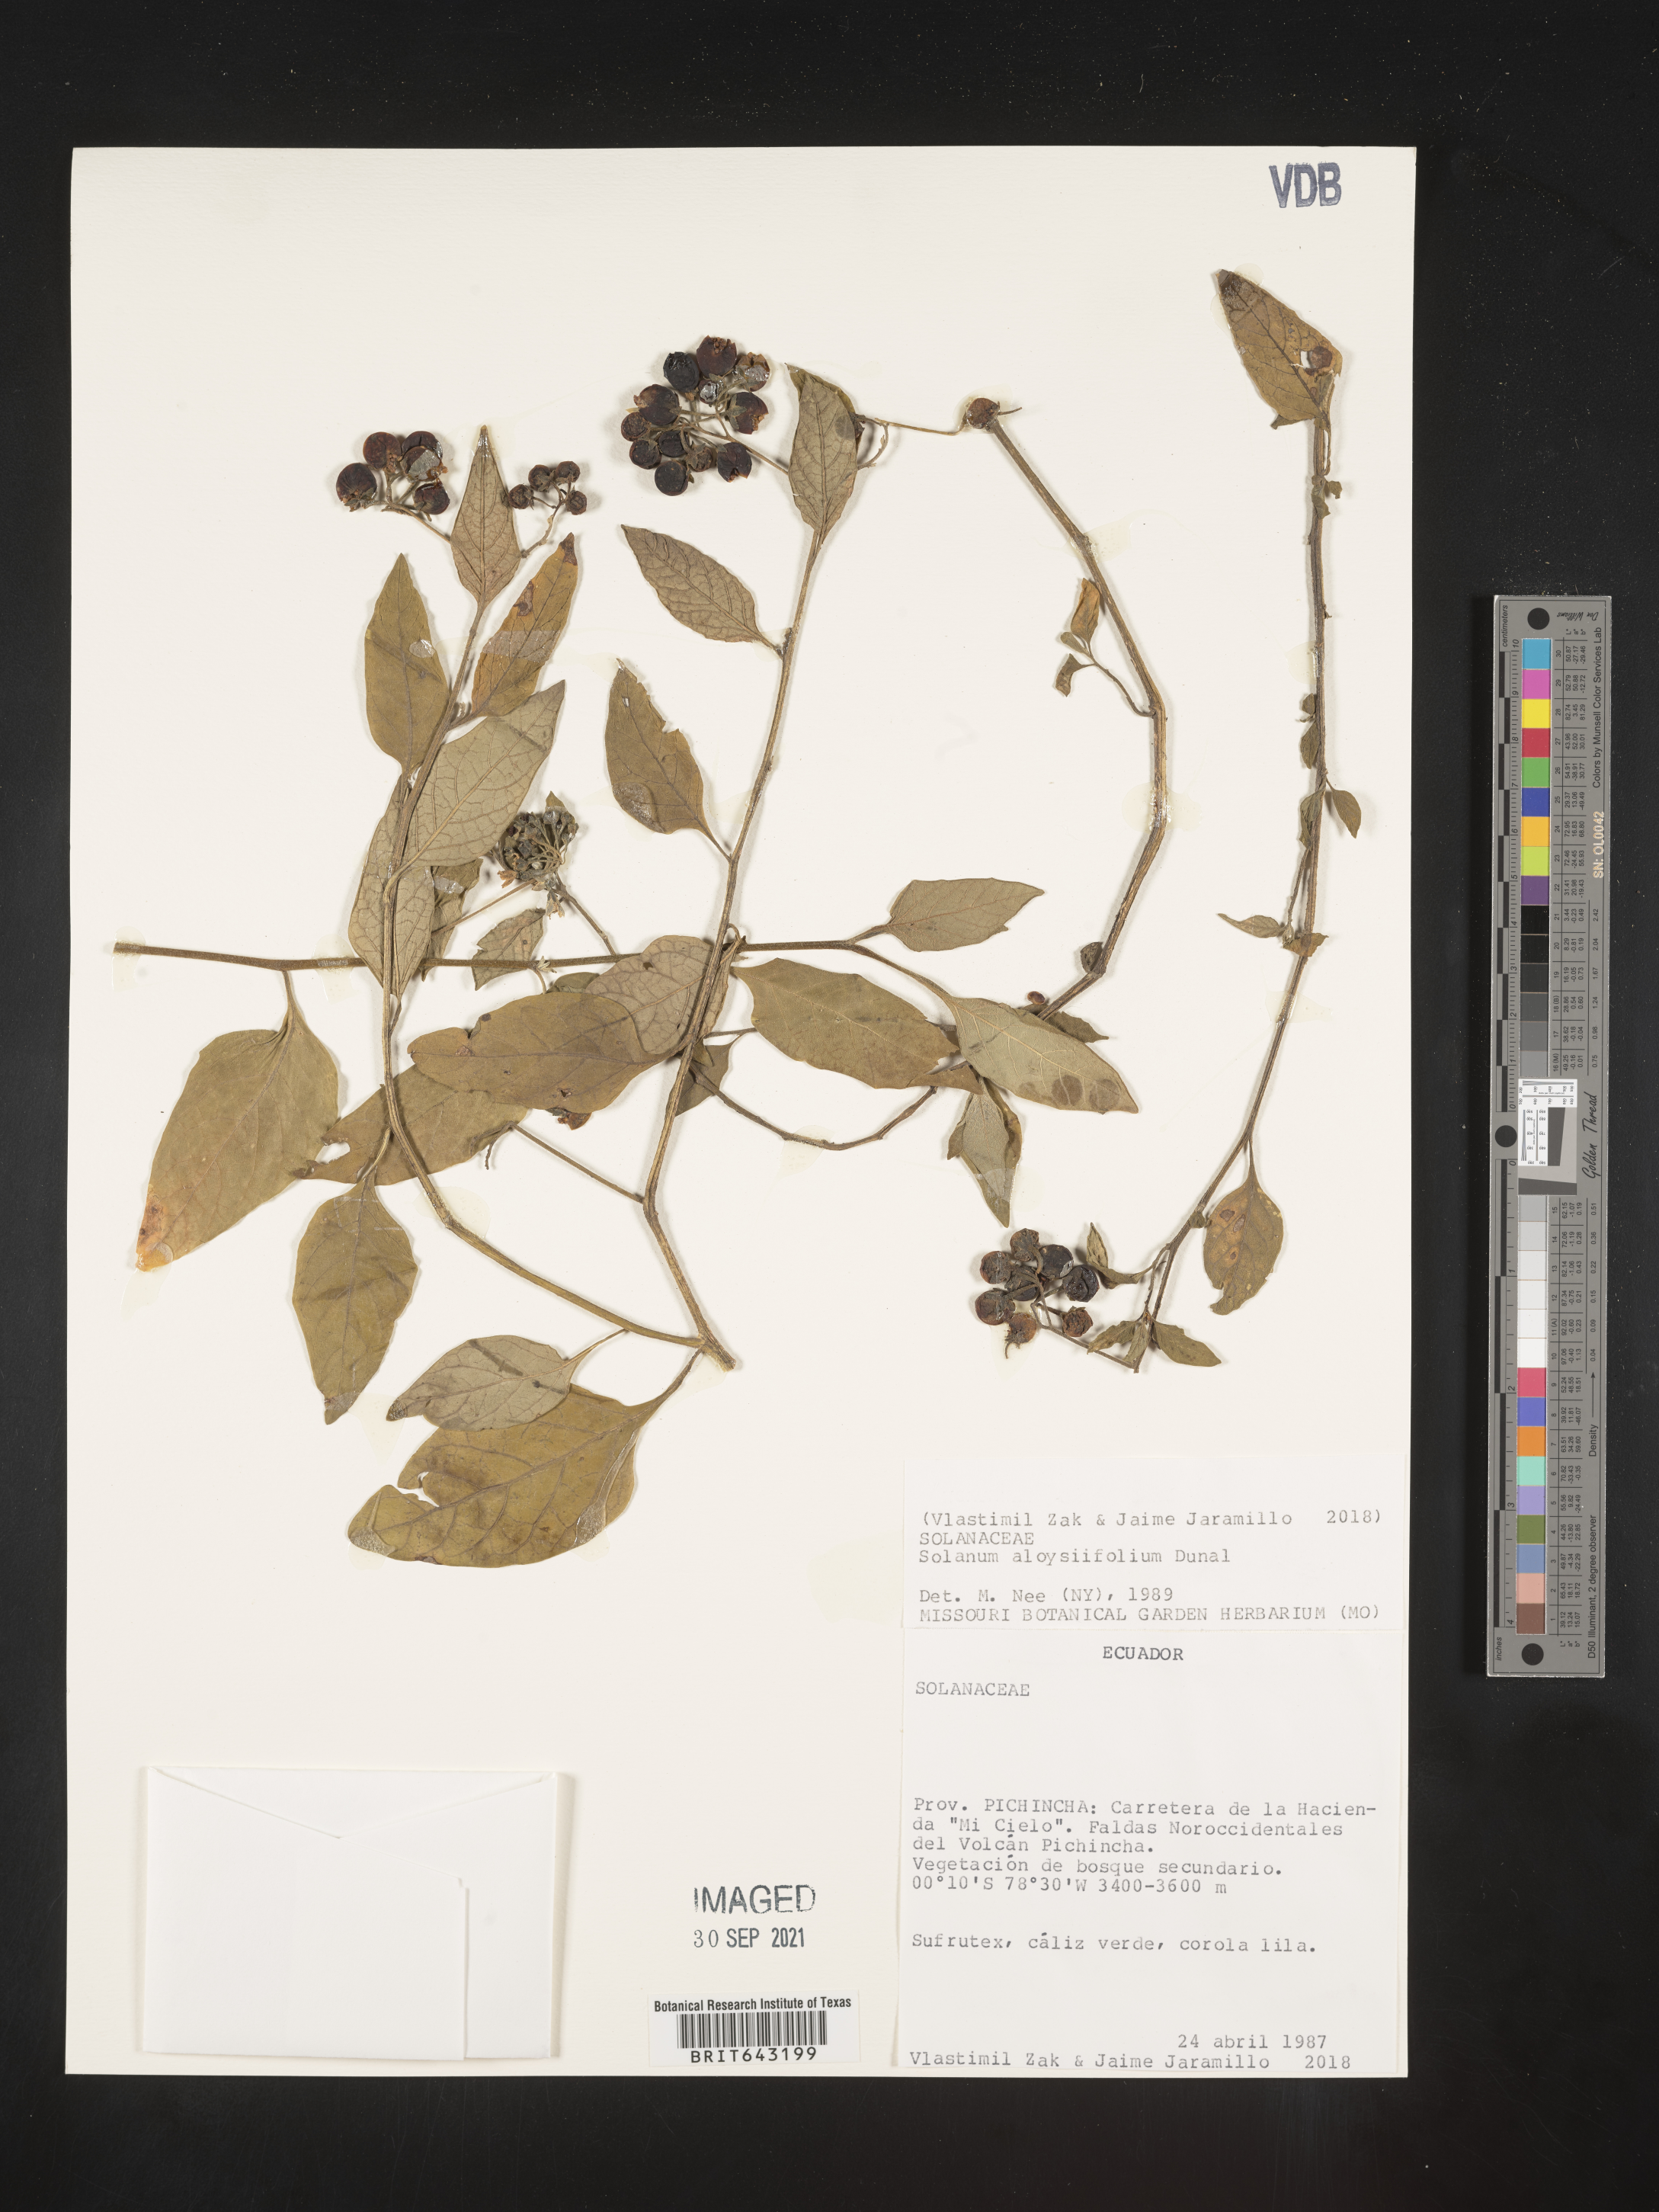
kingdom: Plantae
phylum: Tracheophyta
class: Magnoliopsida
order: Solanales
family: Solanaceae
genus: Solanum
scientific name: Solanum
